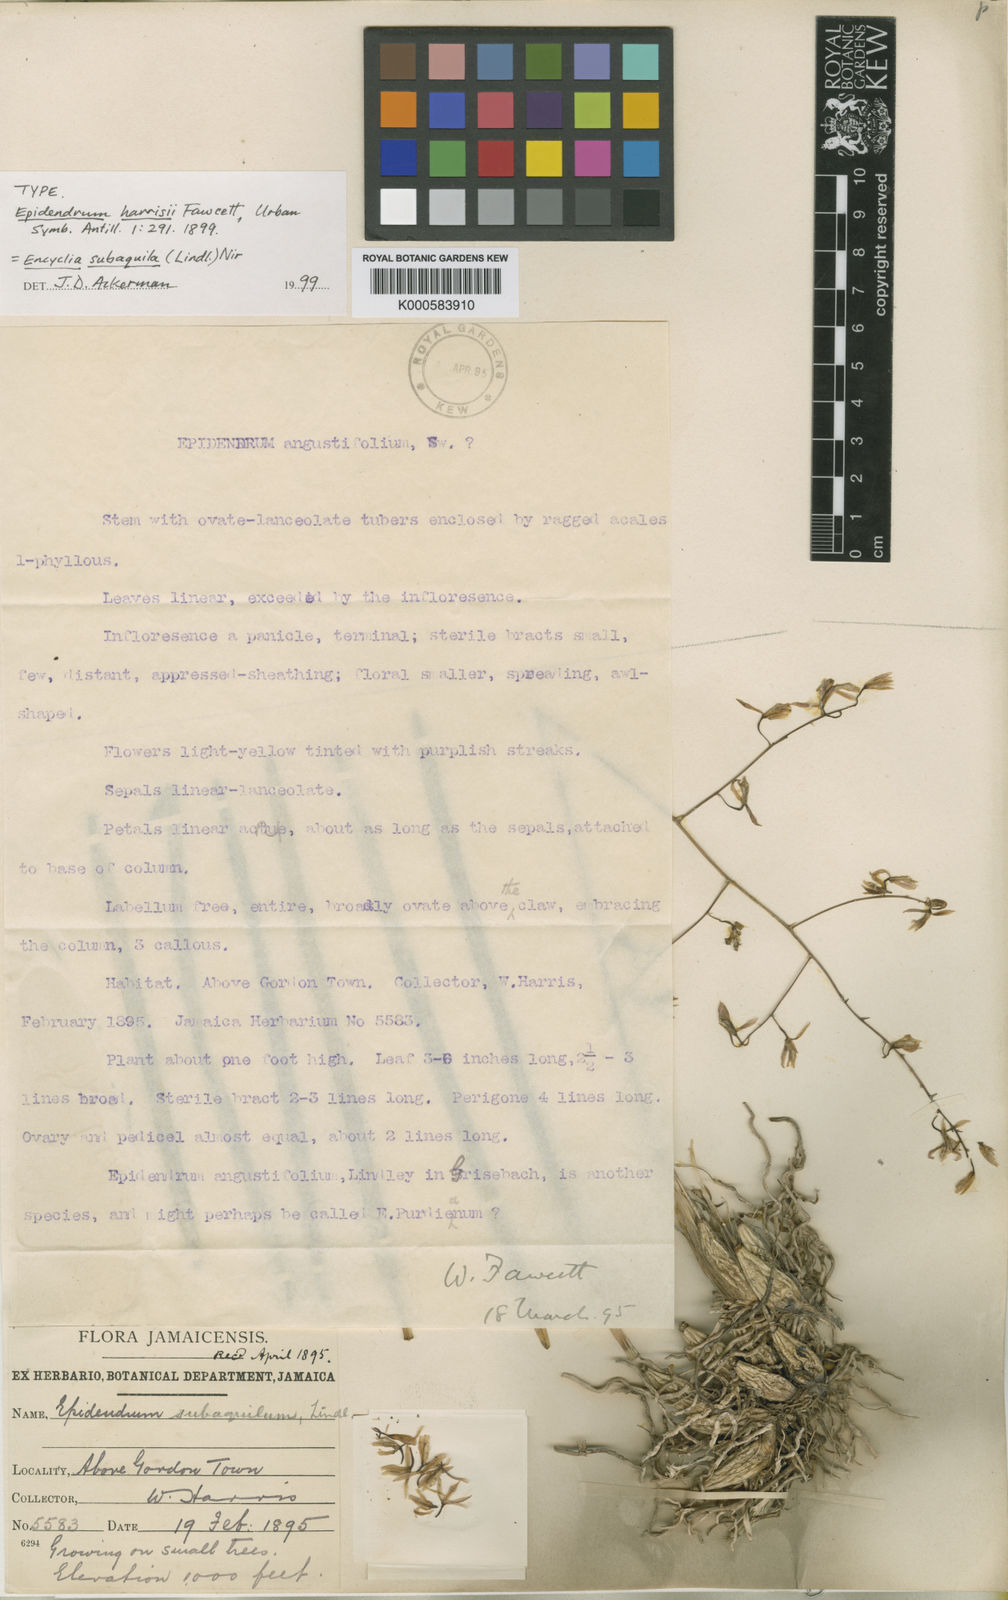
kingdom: Plantae
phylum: Tracheophyta
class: Liliopsida
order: Asparagales
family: Orchidaceae
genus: Encyclia
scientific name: Encyclia angustifolia
